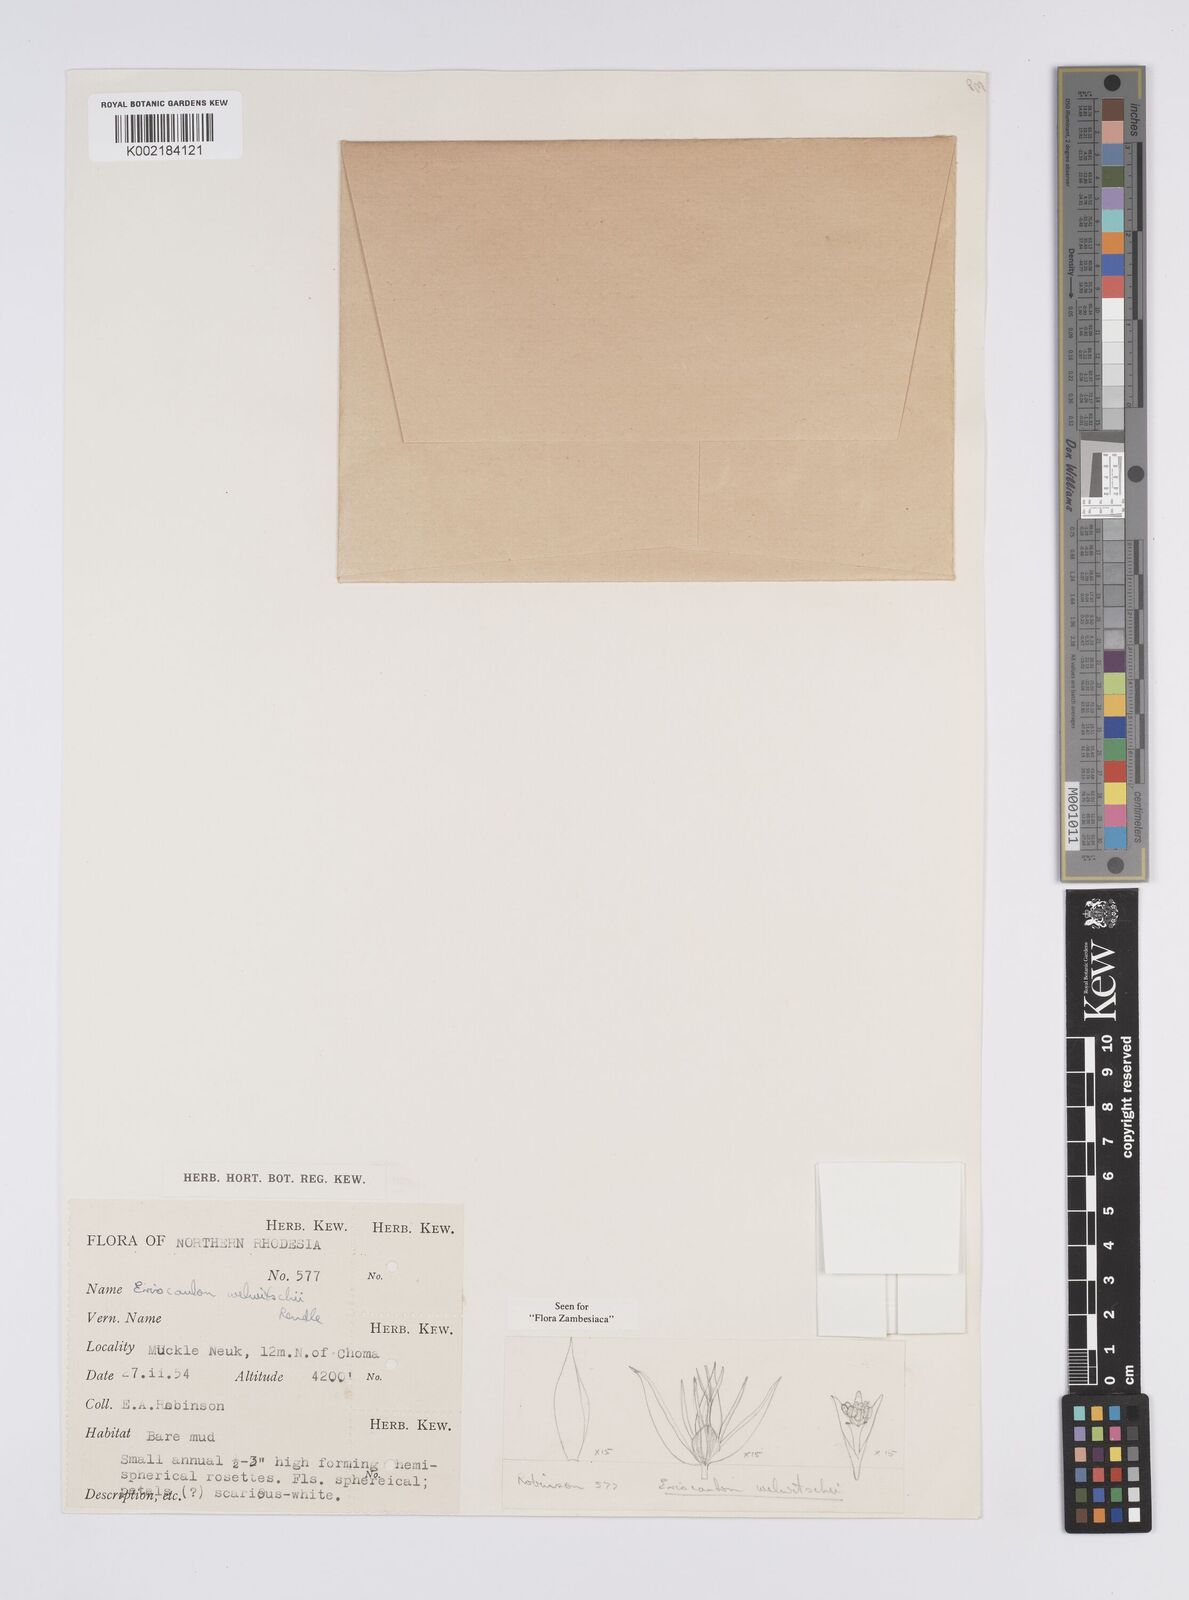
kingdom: Plantae
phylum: Tracheophyta
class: Liliopsida
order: Poales
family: Eriocaulaceae
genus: Eriocaulon
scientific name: Eriocaulon welwitschii
